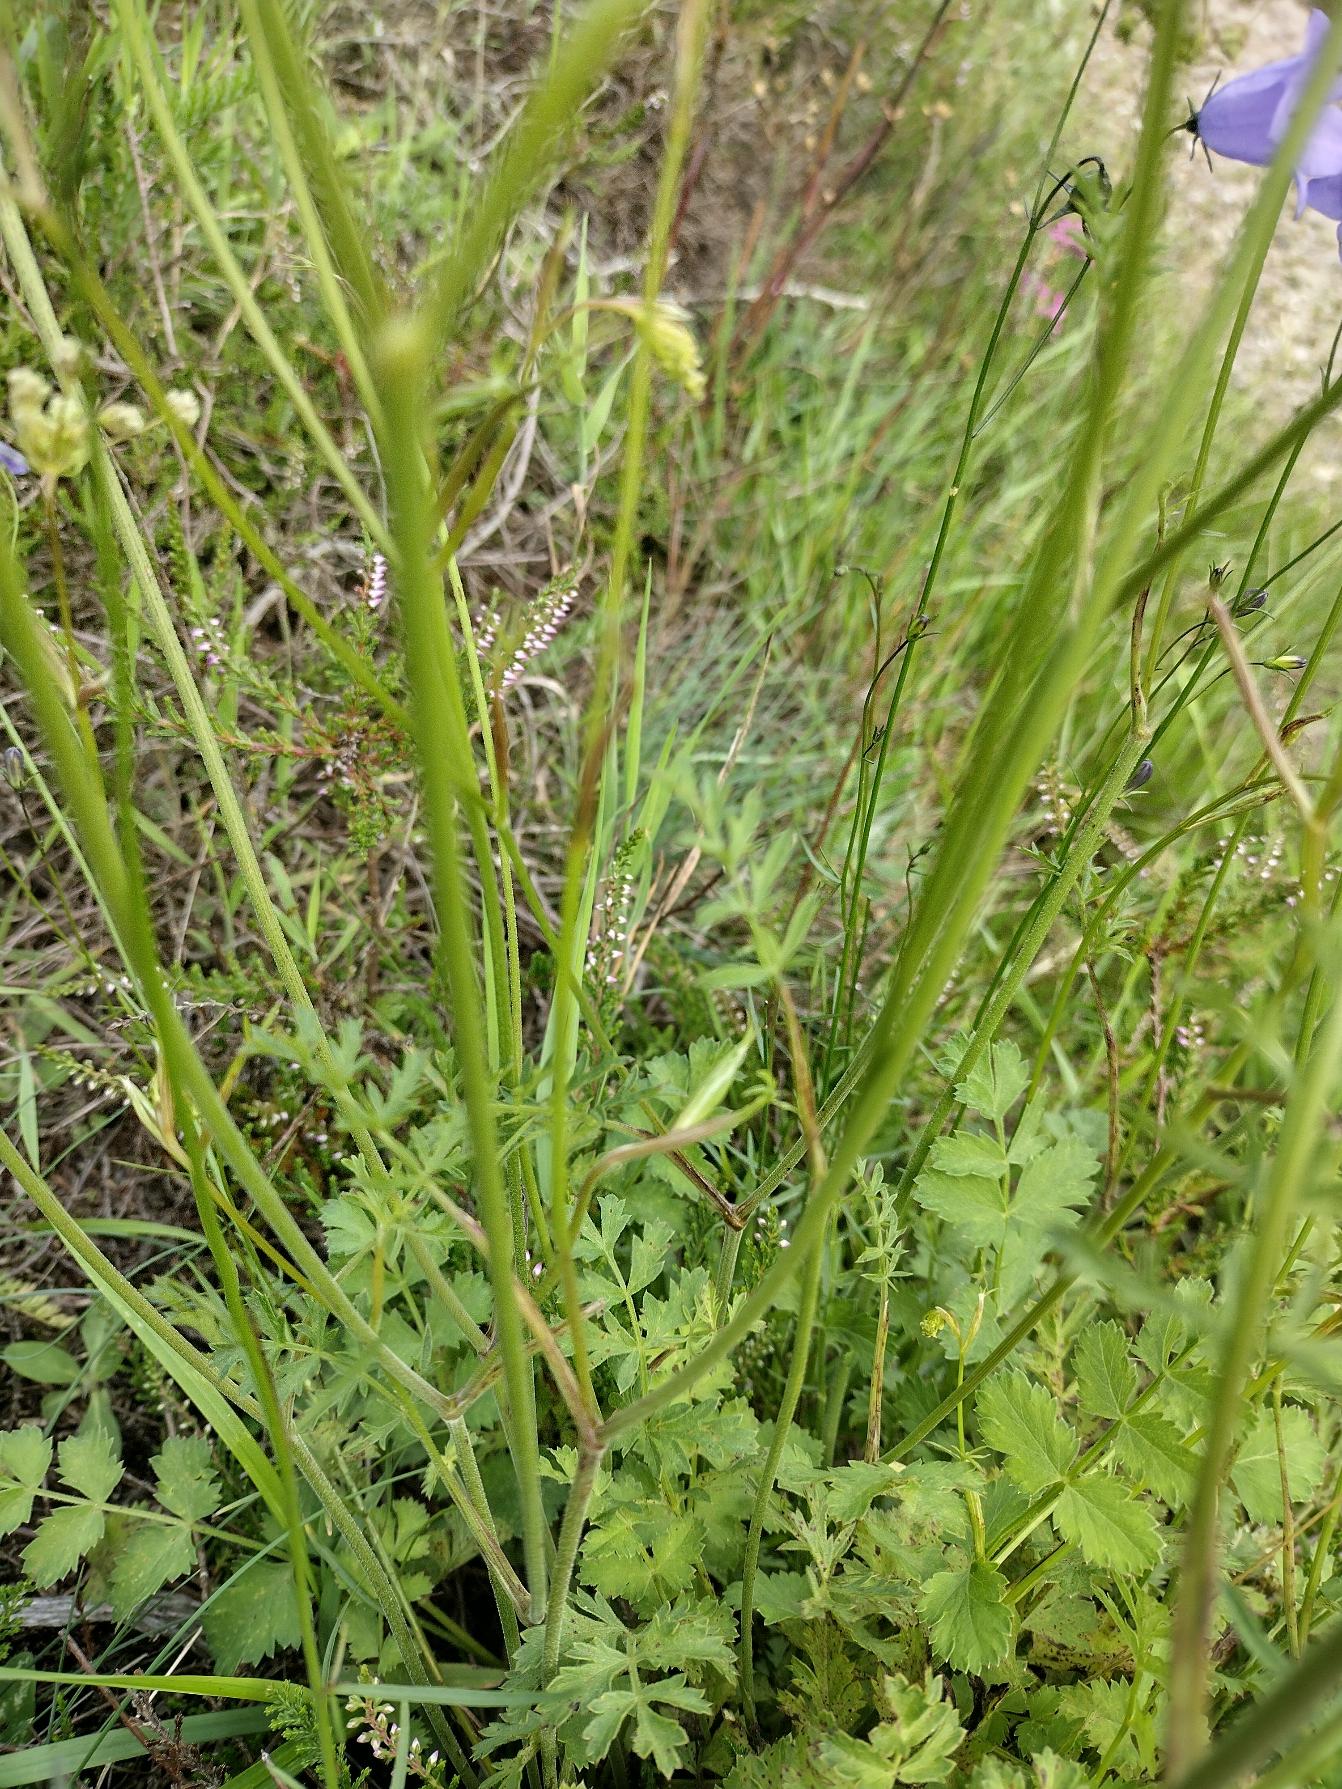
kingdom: Plantae
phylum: Tracheophyta
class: Magnoliopsida
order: Apiales
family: Apiaceae
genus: Pimpinella
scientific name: Pimpinella saxifraga
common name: Almindelig pimpinelle
